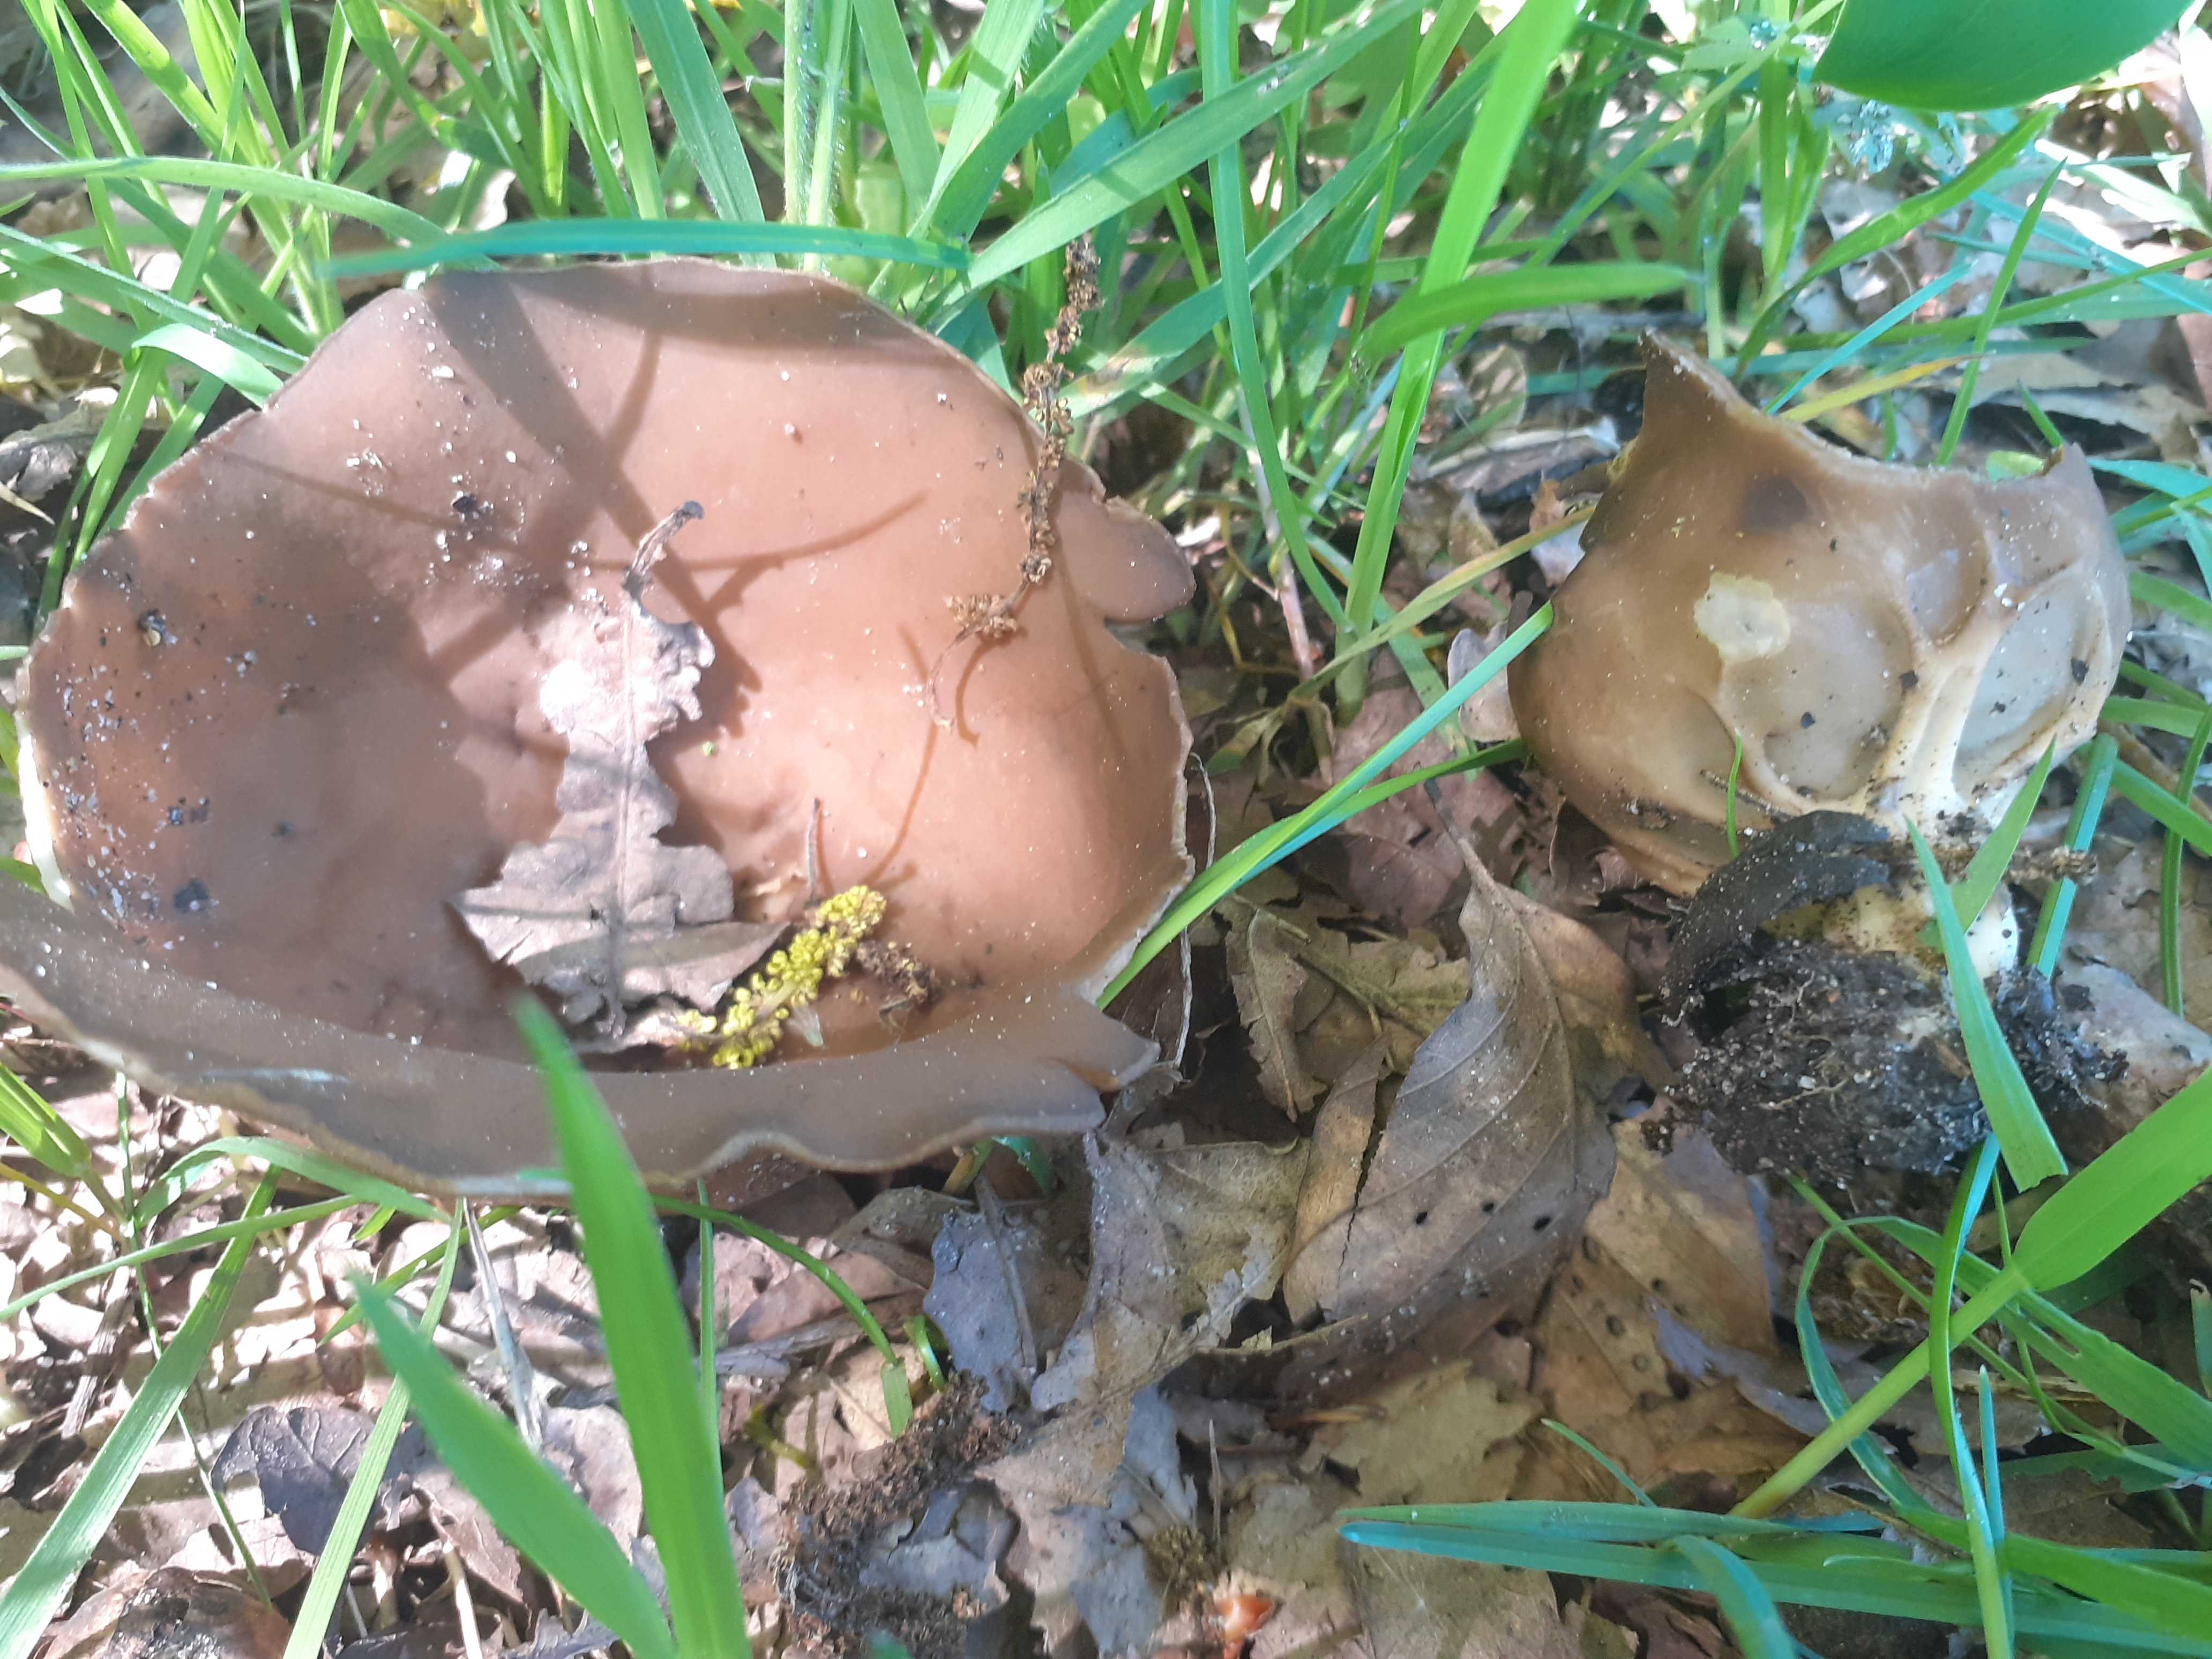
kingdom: Fungi
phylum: Ascomycota
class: Pezizomycetes
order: Pezizales
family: Helvellaceae
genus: Helvella
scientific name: Helvella acetabulum
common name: pokal-foldhat
